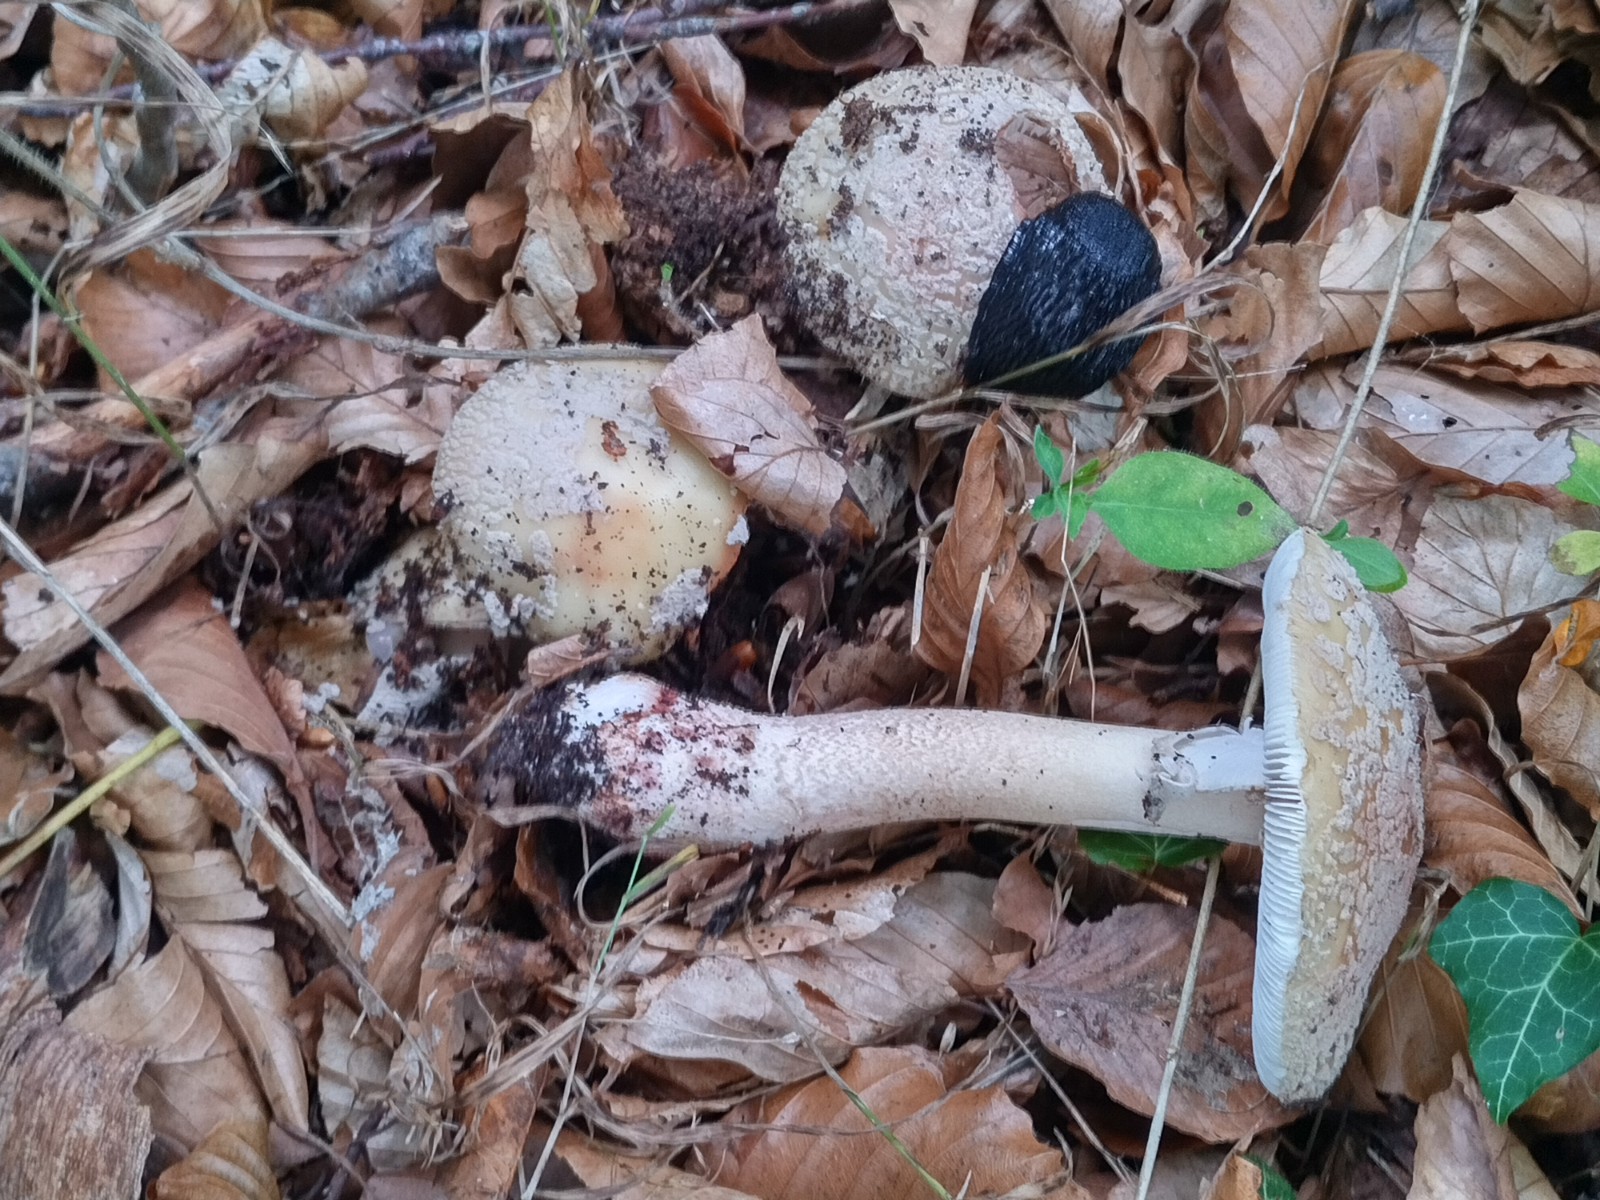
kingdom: Fungi
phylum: Basidiomycota
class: Agaricomycetes
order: Agaricales
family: Amanitaceae
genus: Amanita
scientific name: Amanita rubescens
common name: rødmende fluesvamp
